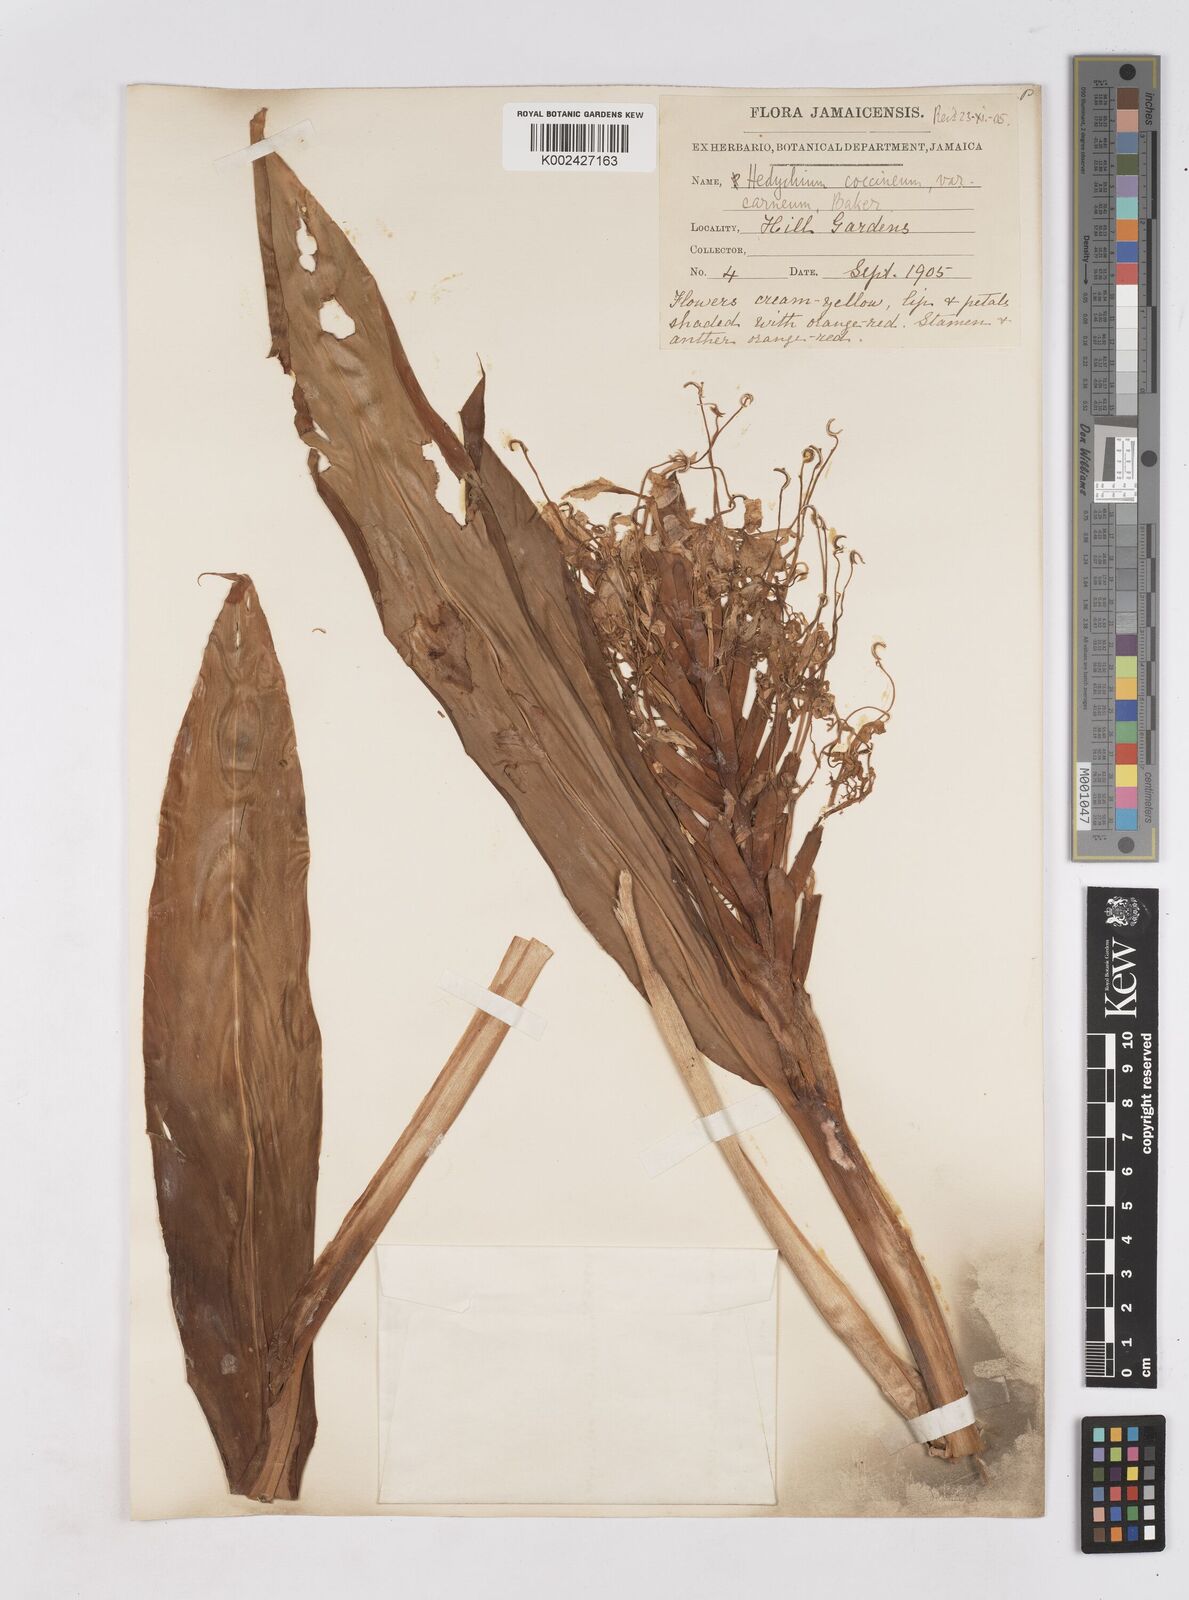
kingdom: Plantae
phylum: Tracheophyta
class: Liliopsida
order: Zingiberales
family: Zingiberaceae
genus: Hedychium
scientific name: Hedychium coccineum
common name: Red ginger-lily
